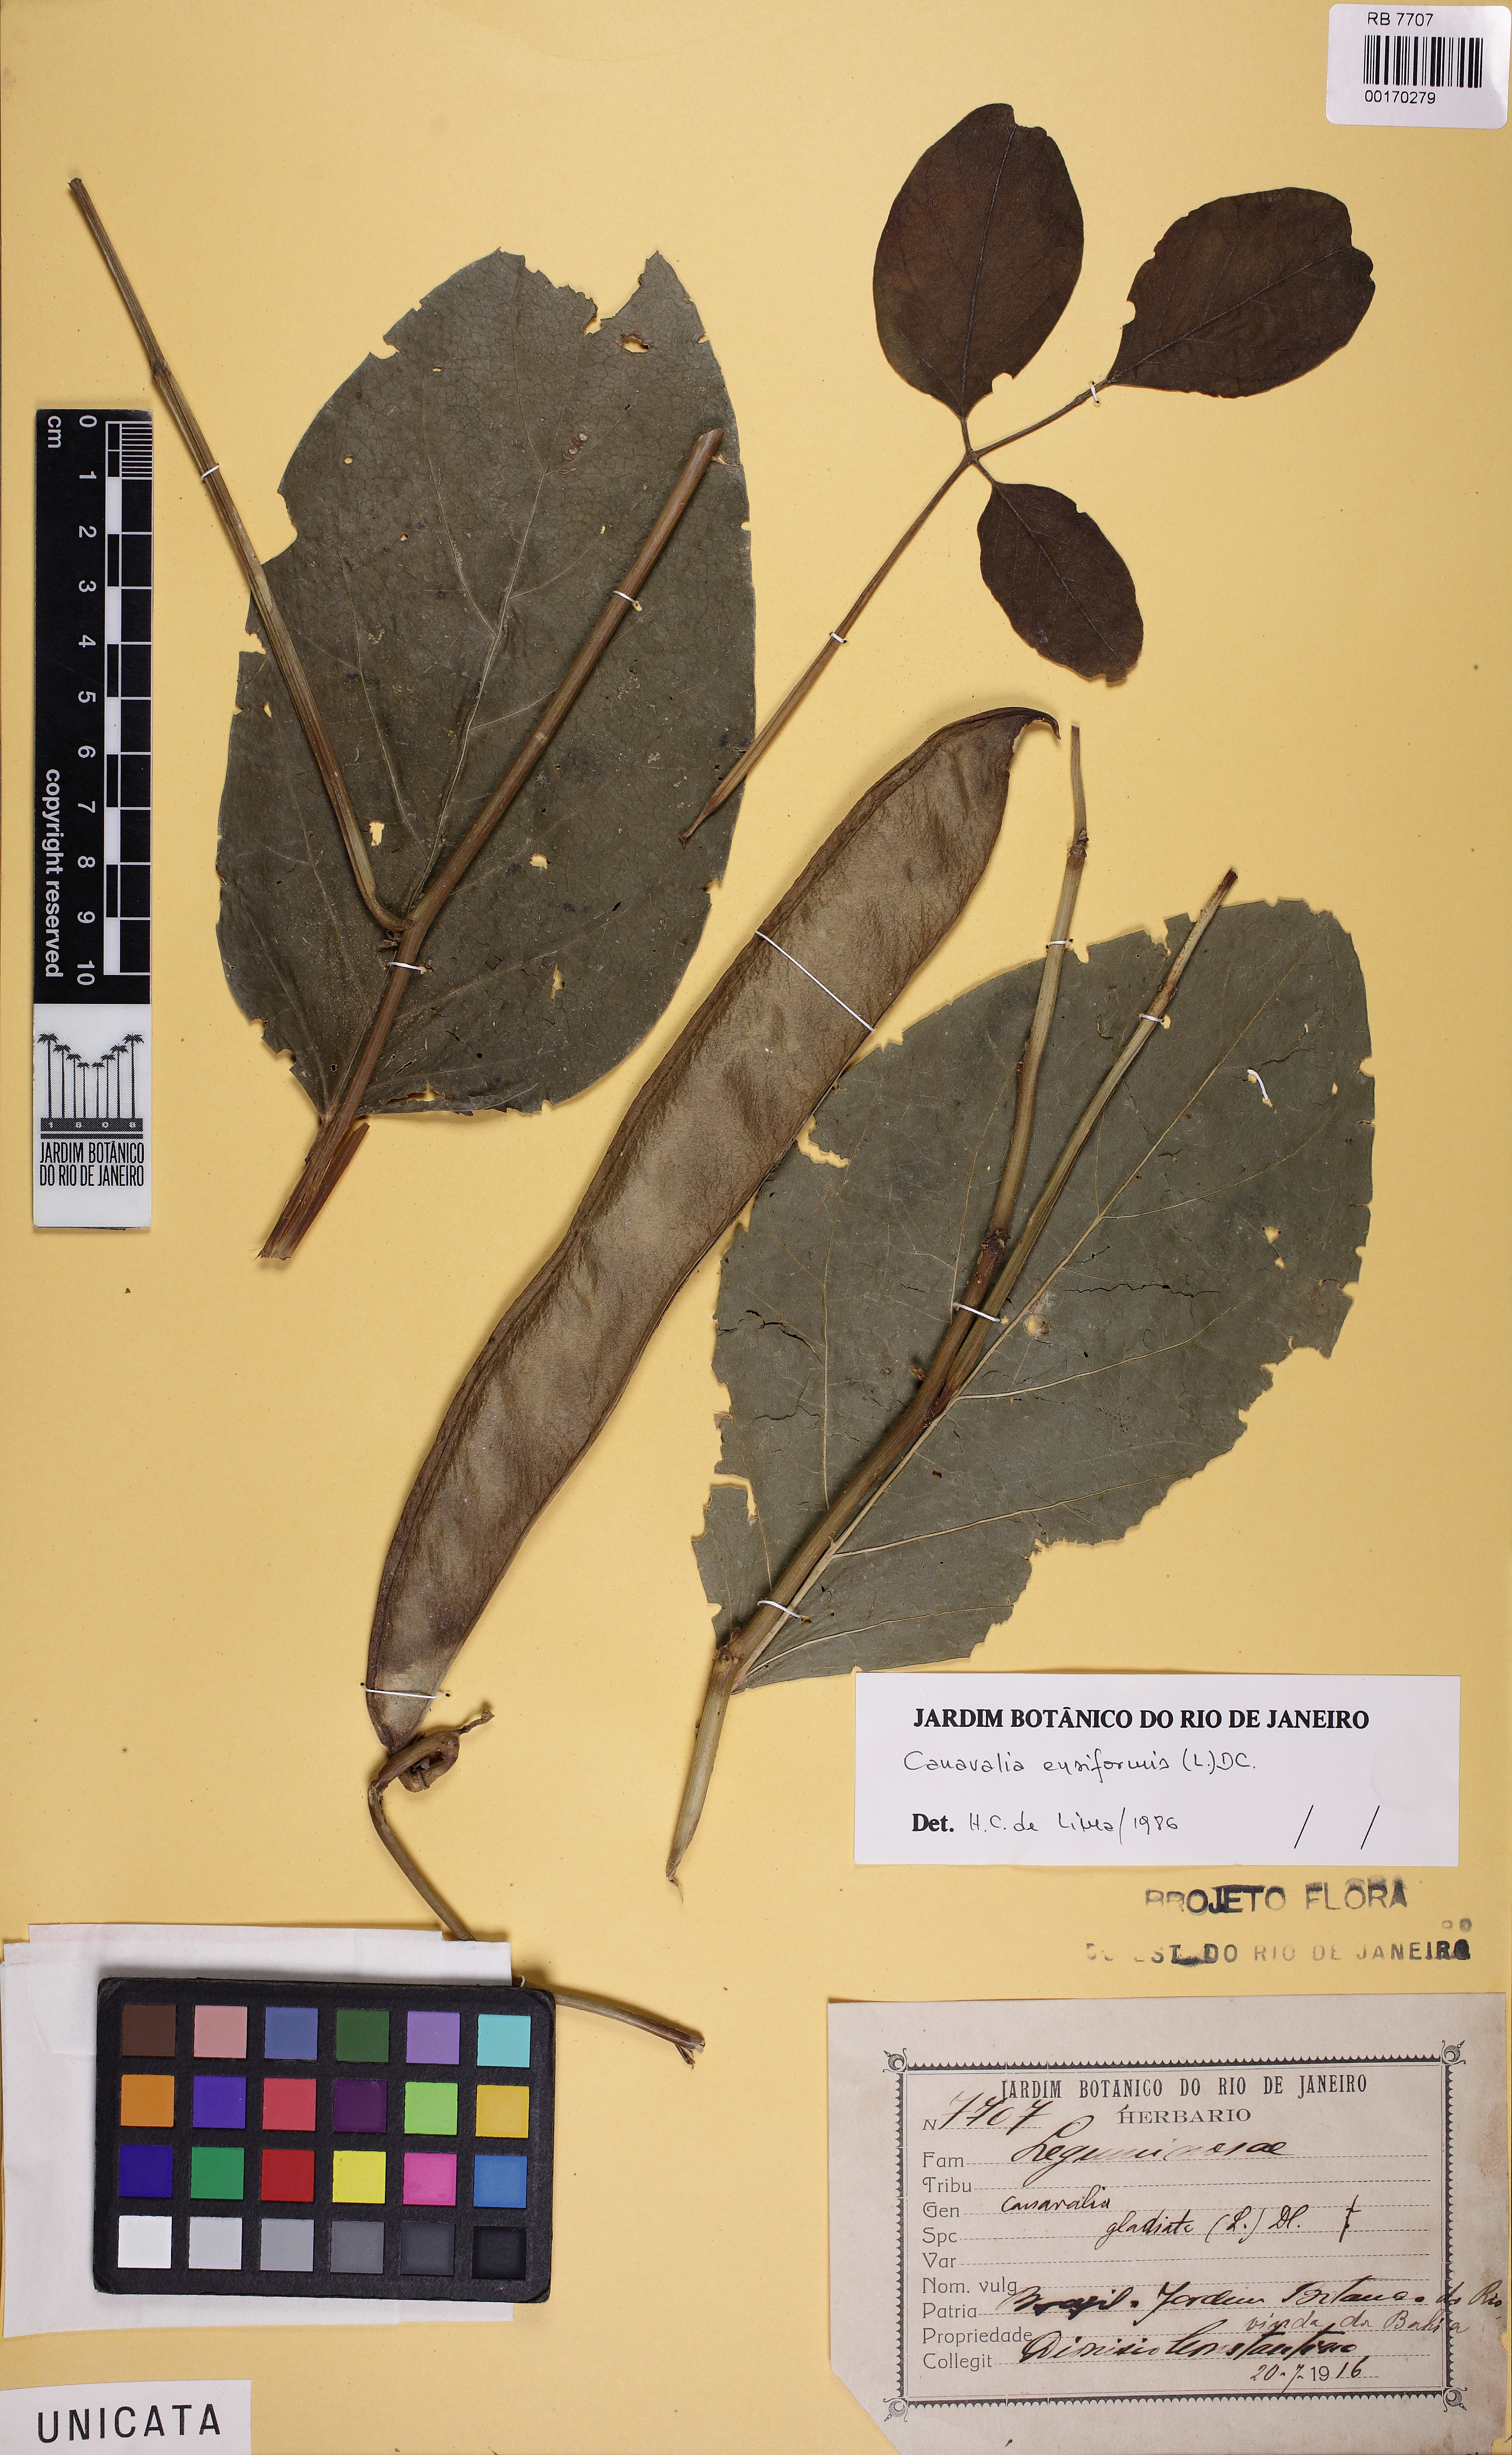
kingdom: Plantae
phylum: Tracheophyta
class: Magnoliopsida
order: Fabales
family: Fabaceae
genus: Canavalia
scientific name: Canavalia ensiformis
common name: Jack bean
